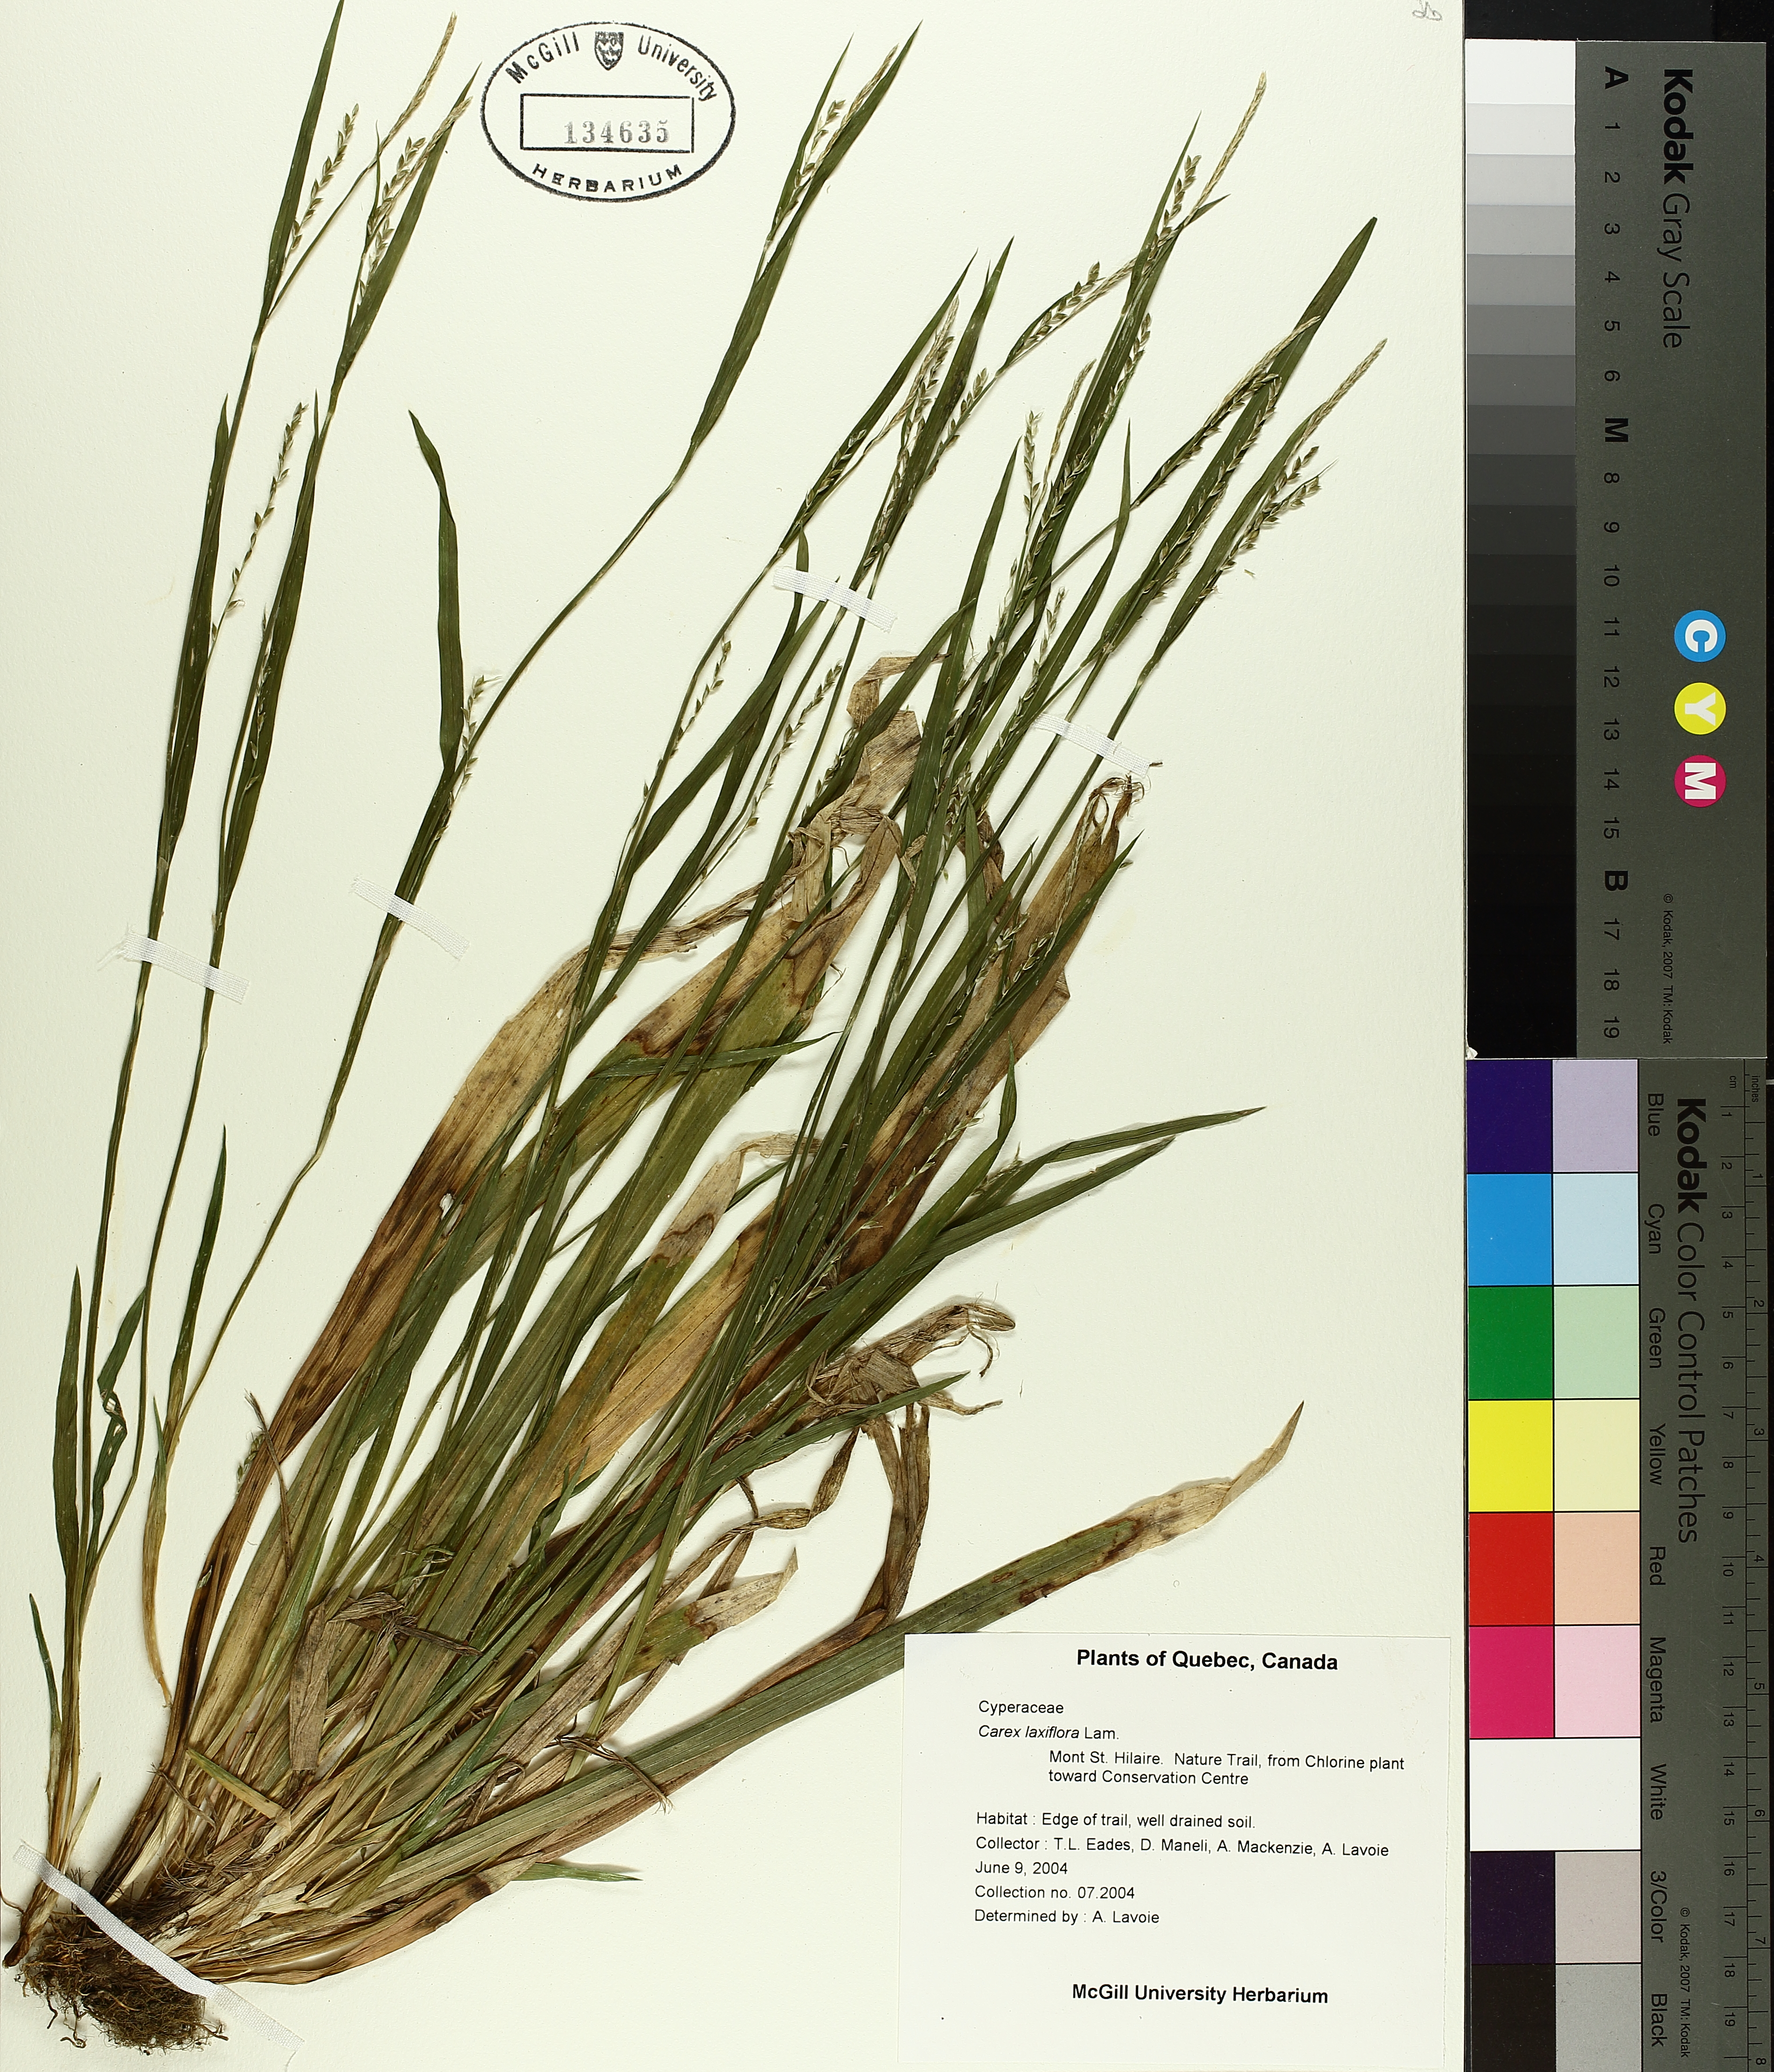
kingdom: Plantae
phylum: Tracheophyta
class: Liliopsida
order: Poales
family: Cyperaceae
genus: Carex
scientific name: Carex laxiflora
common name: Beech wood sedge
